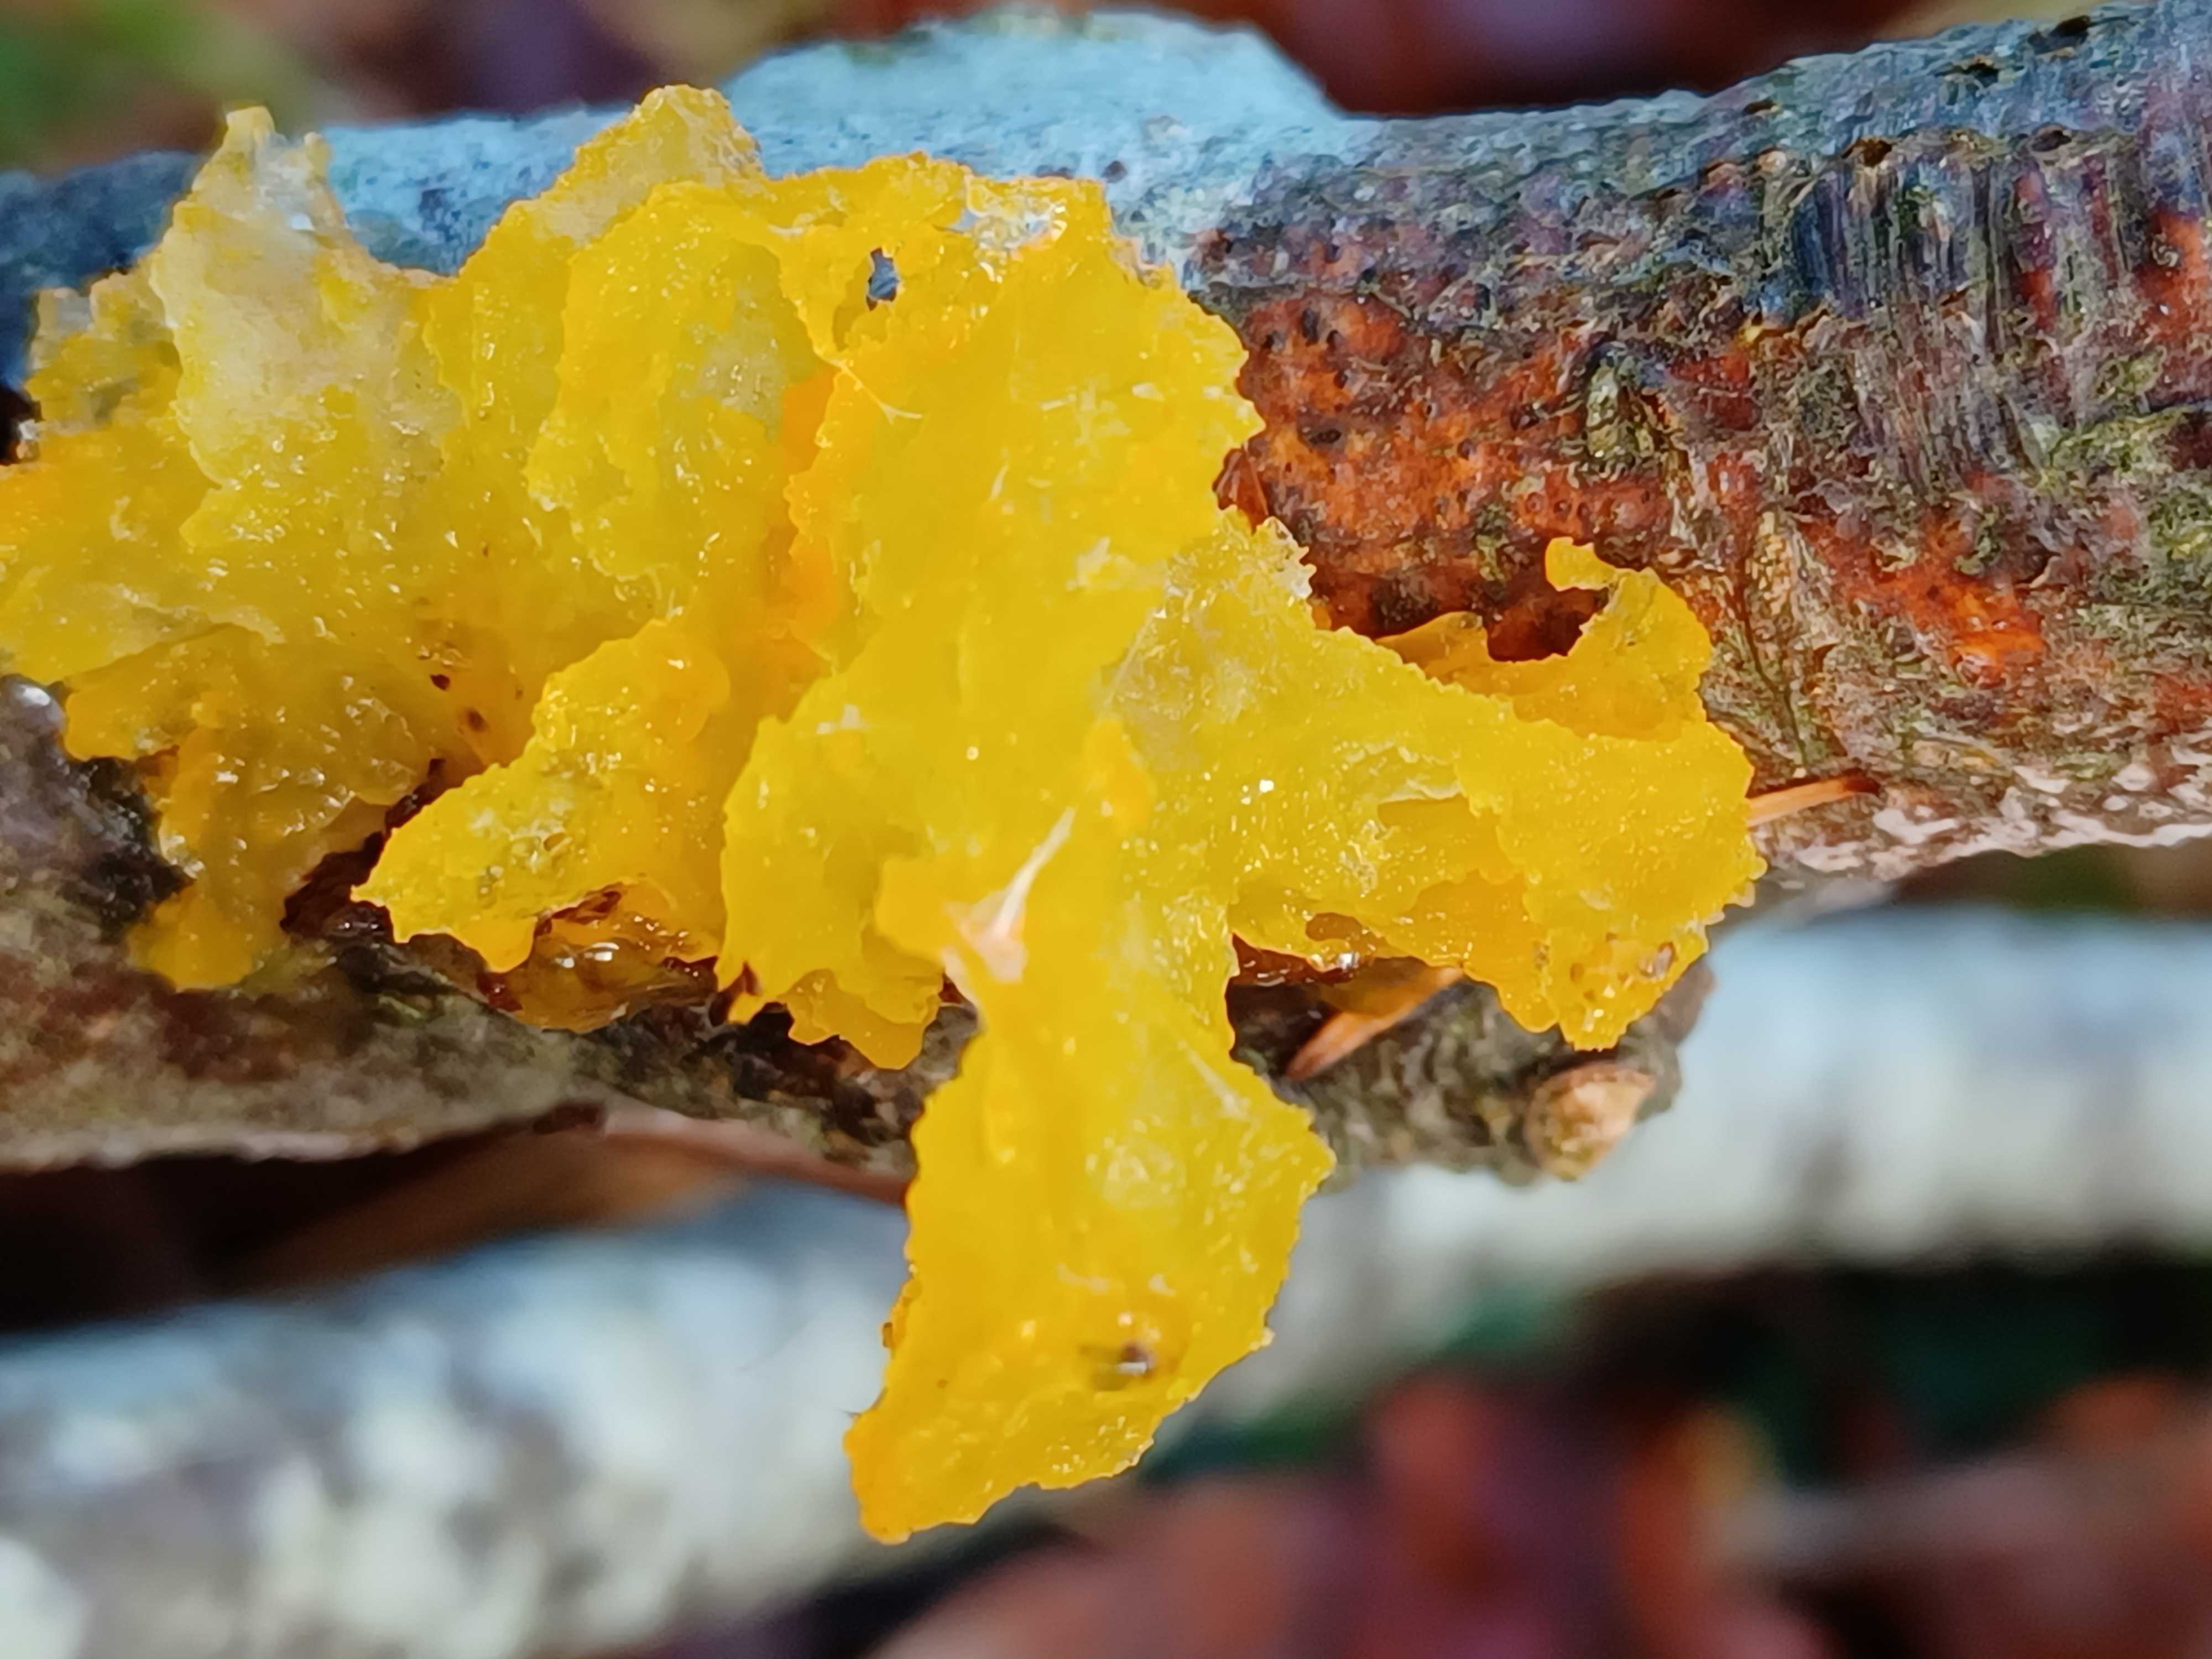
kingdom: Fungi
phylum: Basidiomycota
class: Tremellomycetes
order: Tremellales
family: Tremellaceae
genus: Tremella
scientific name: Tremella mesenterica
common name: gul bævresvamp
